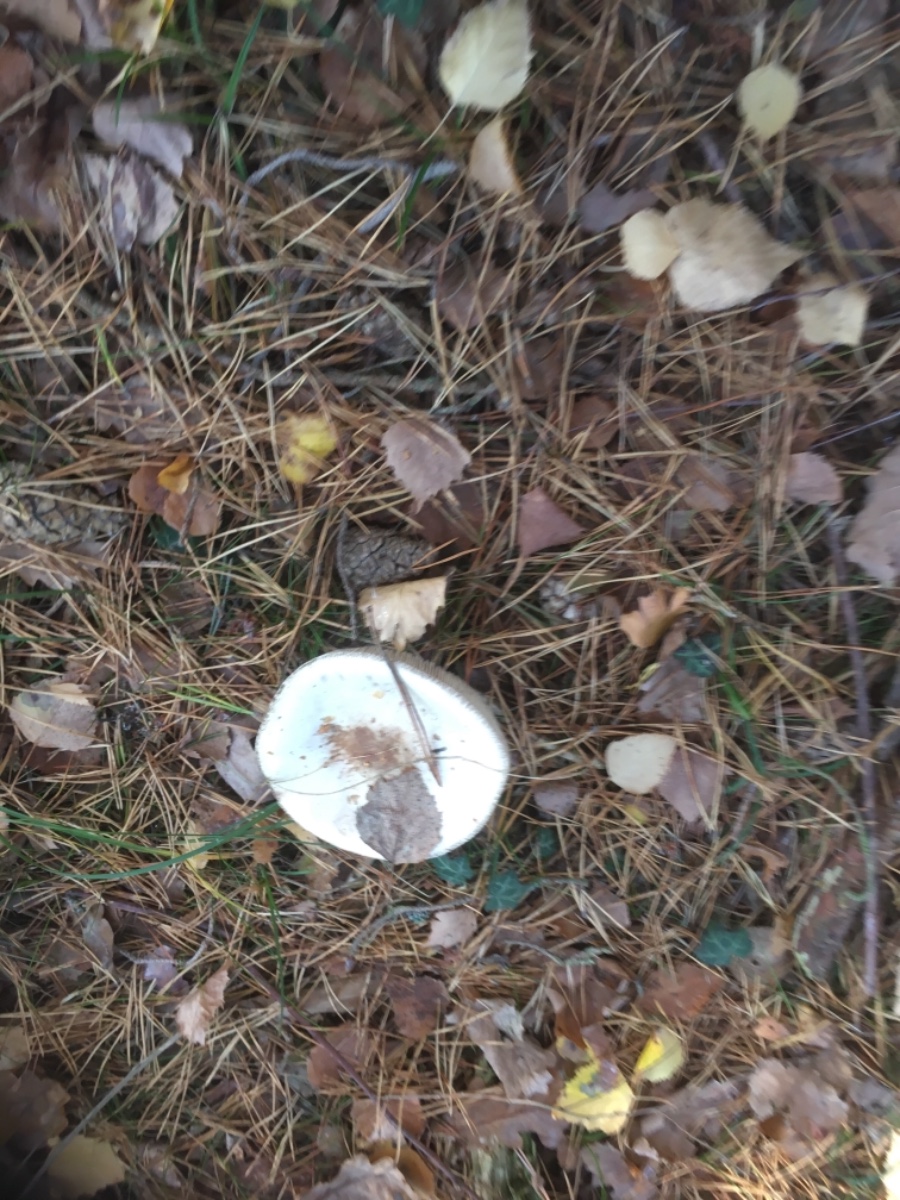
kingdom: Fungi
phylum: Basidiomycota
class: Agaricomycetes
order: Agaricales
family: Amanitaceae
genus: Amanita
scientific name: Amanita citrina
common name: kugleknoldet fluesvamp
